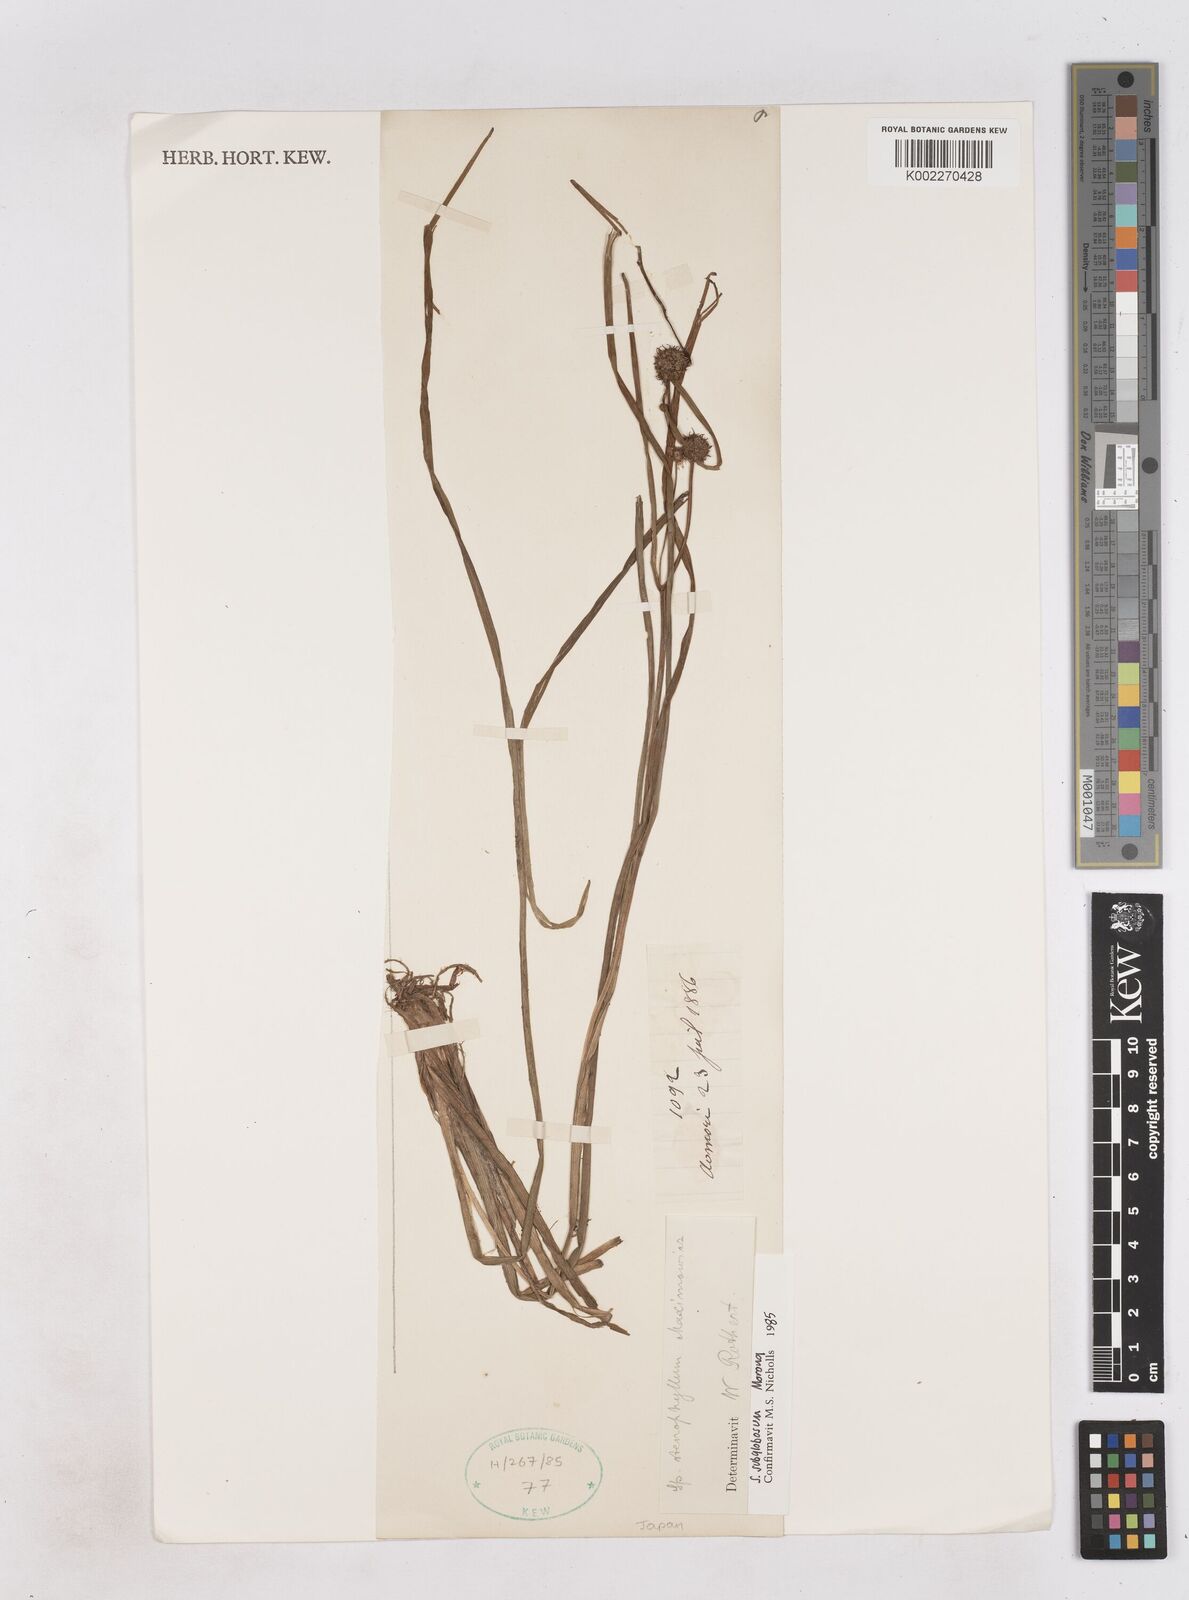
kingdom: Plantae
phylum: Tracheophyta
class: Liliopsida
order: Poales
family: Typhaceae
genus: Sparganium
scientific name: Sparganium subglobosum
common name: Burr­-reed
